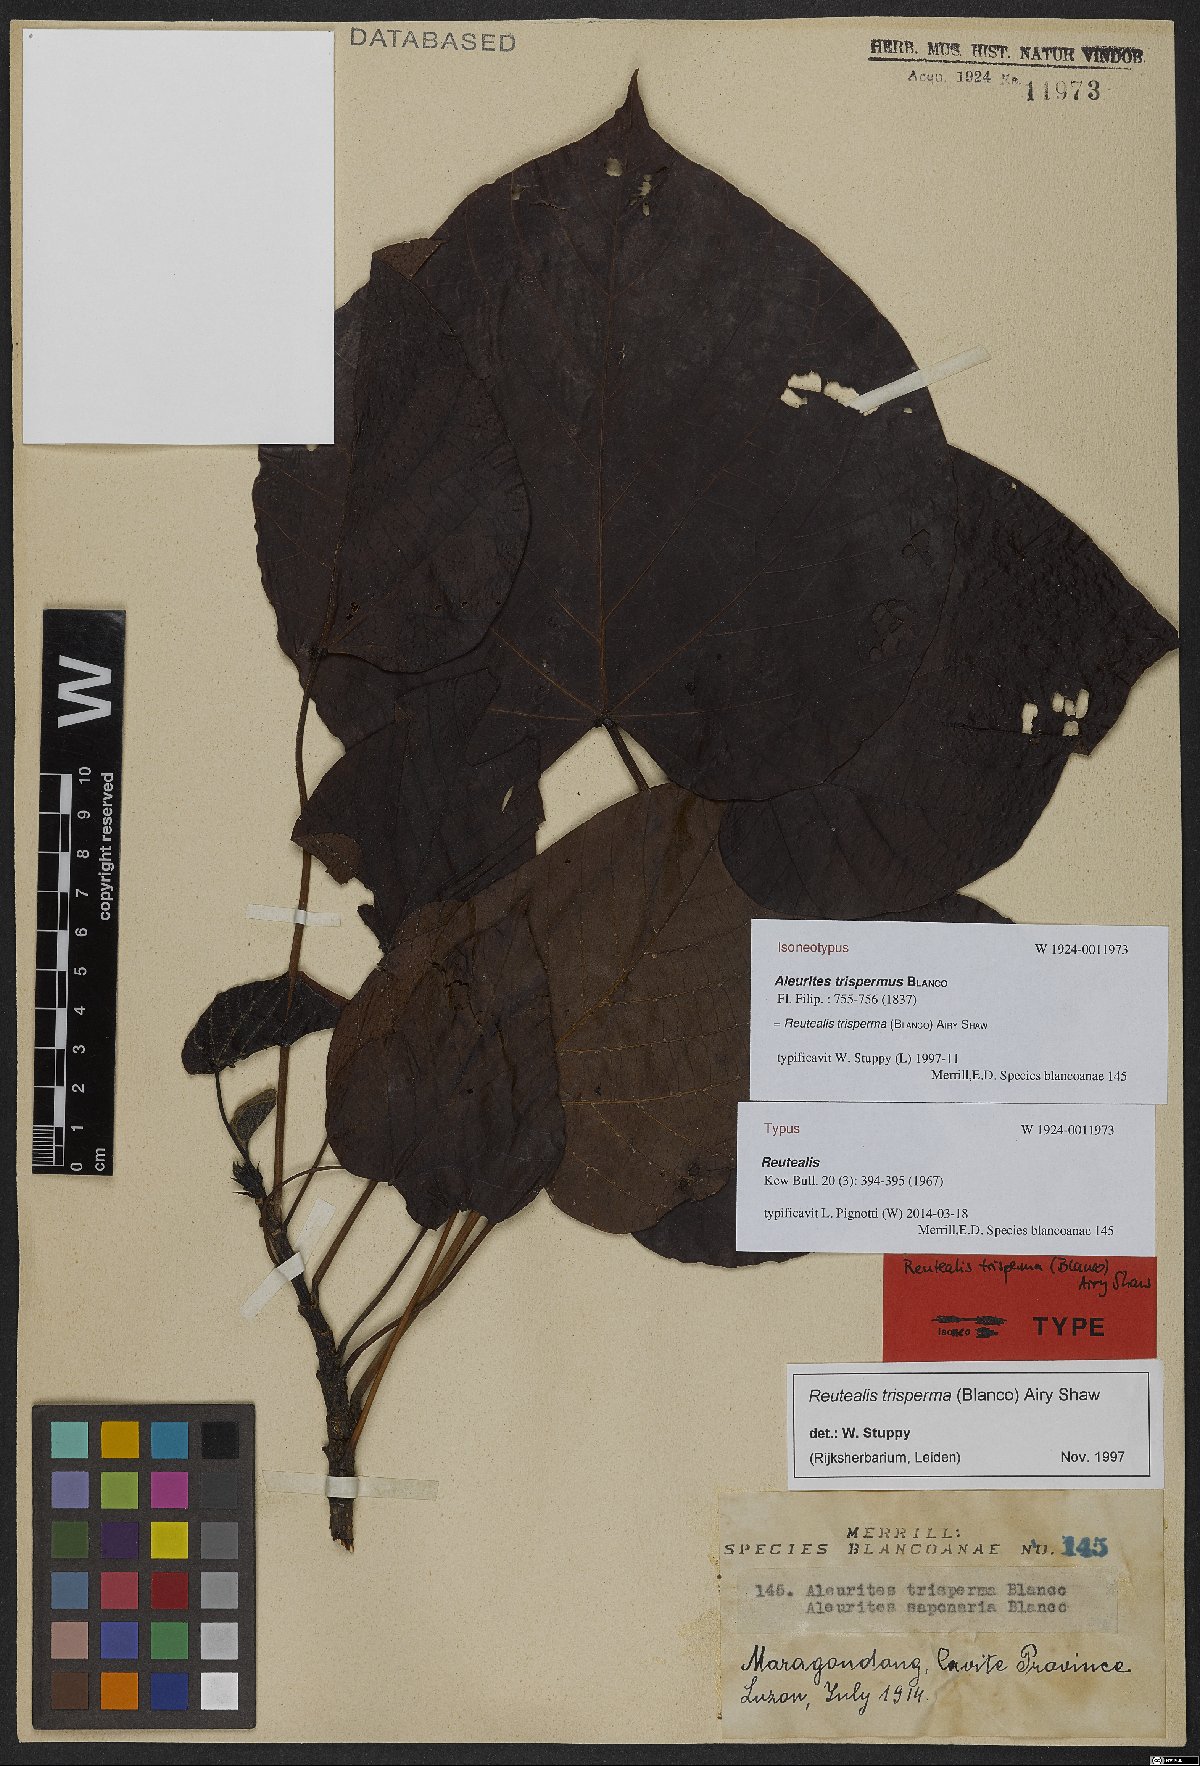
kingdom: Plantae
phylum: Tracheophyta
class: Magnoliopsida
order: Malpighiales
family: Euphorbiaceae
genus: Reutealis
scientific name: Reutealis trisperma
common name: Banucalag-nut
